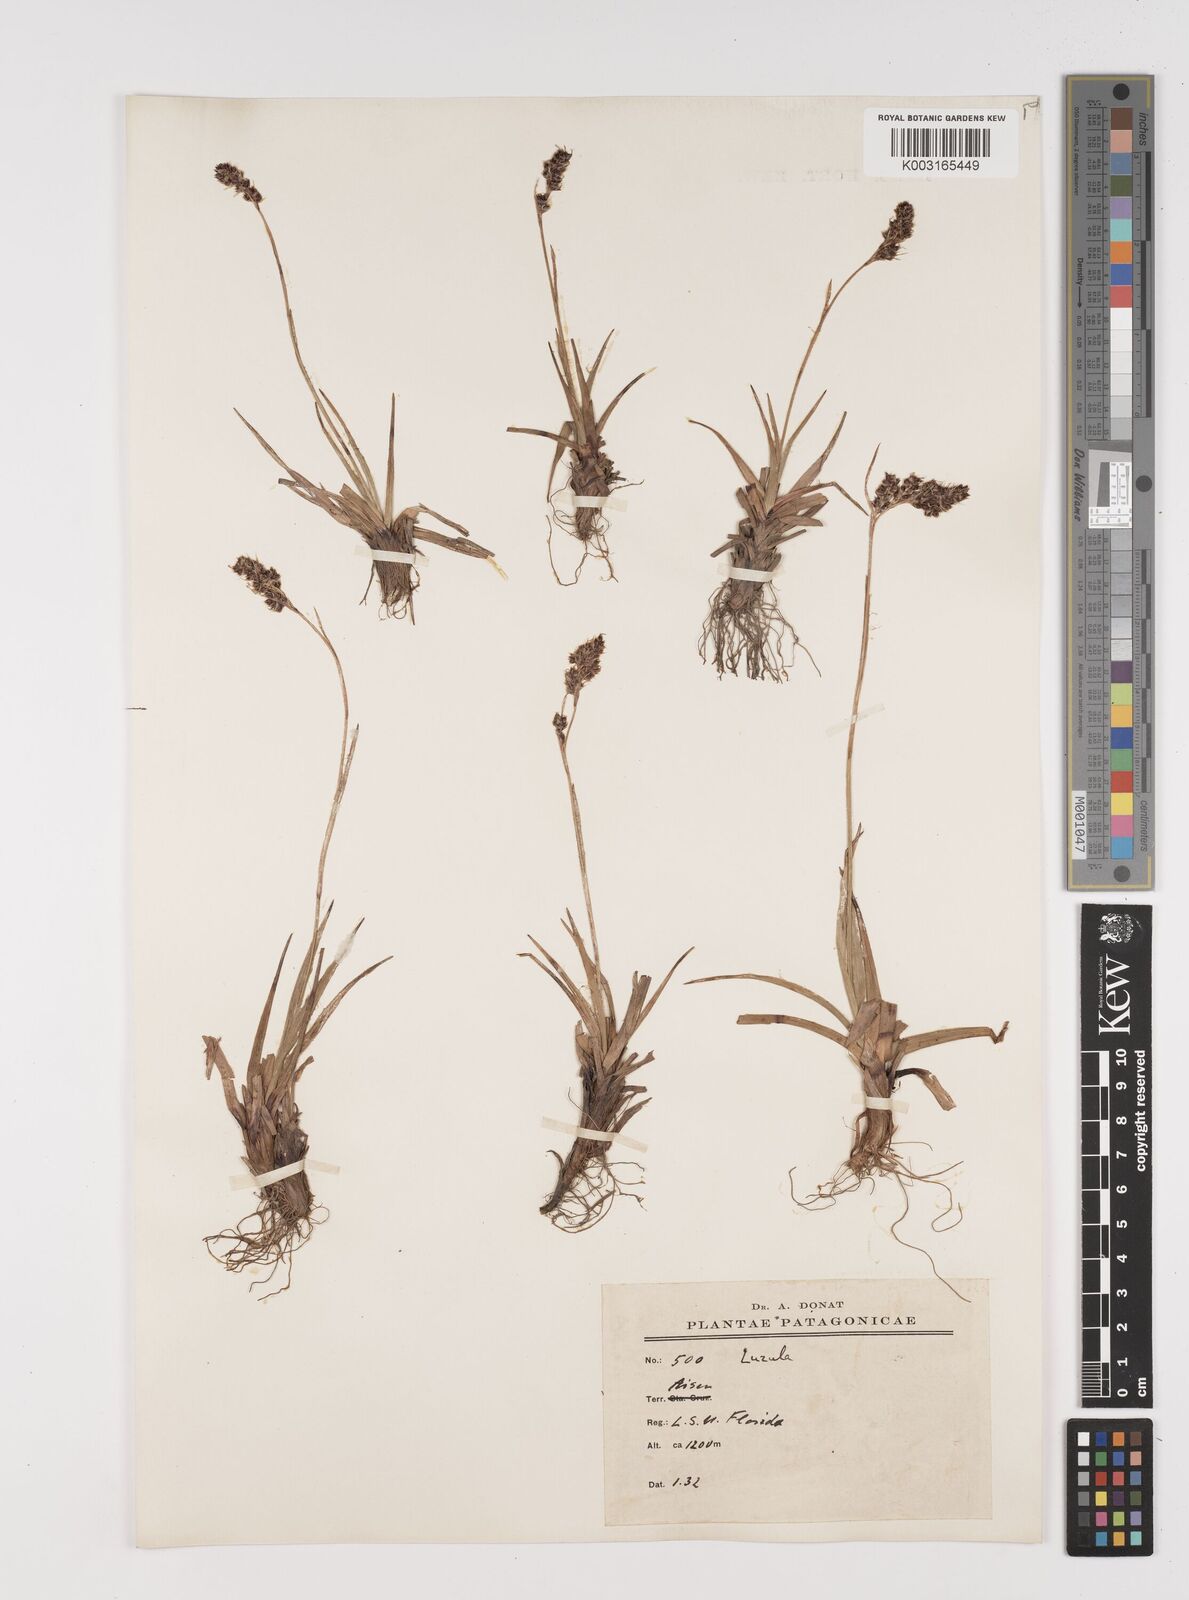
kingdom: Plantae
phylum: Tracheophyta
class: Liliopsida
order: Poales
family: Juncaceae
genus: Luzula
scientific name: Luzula
